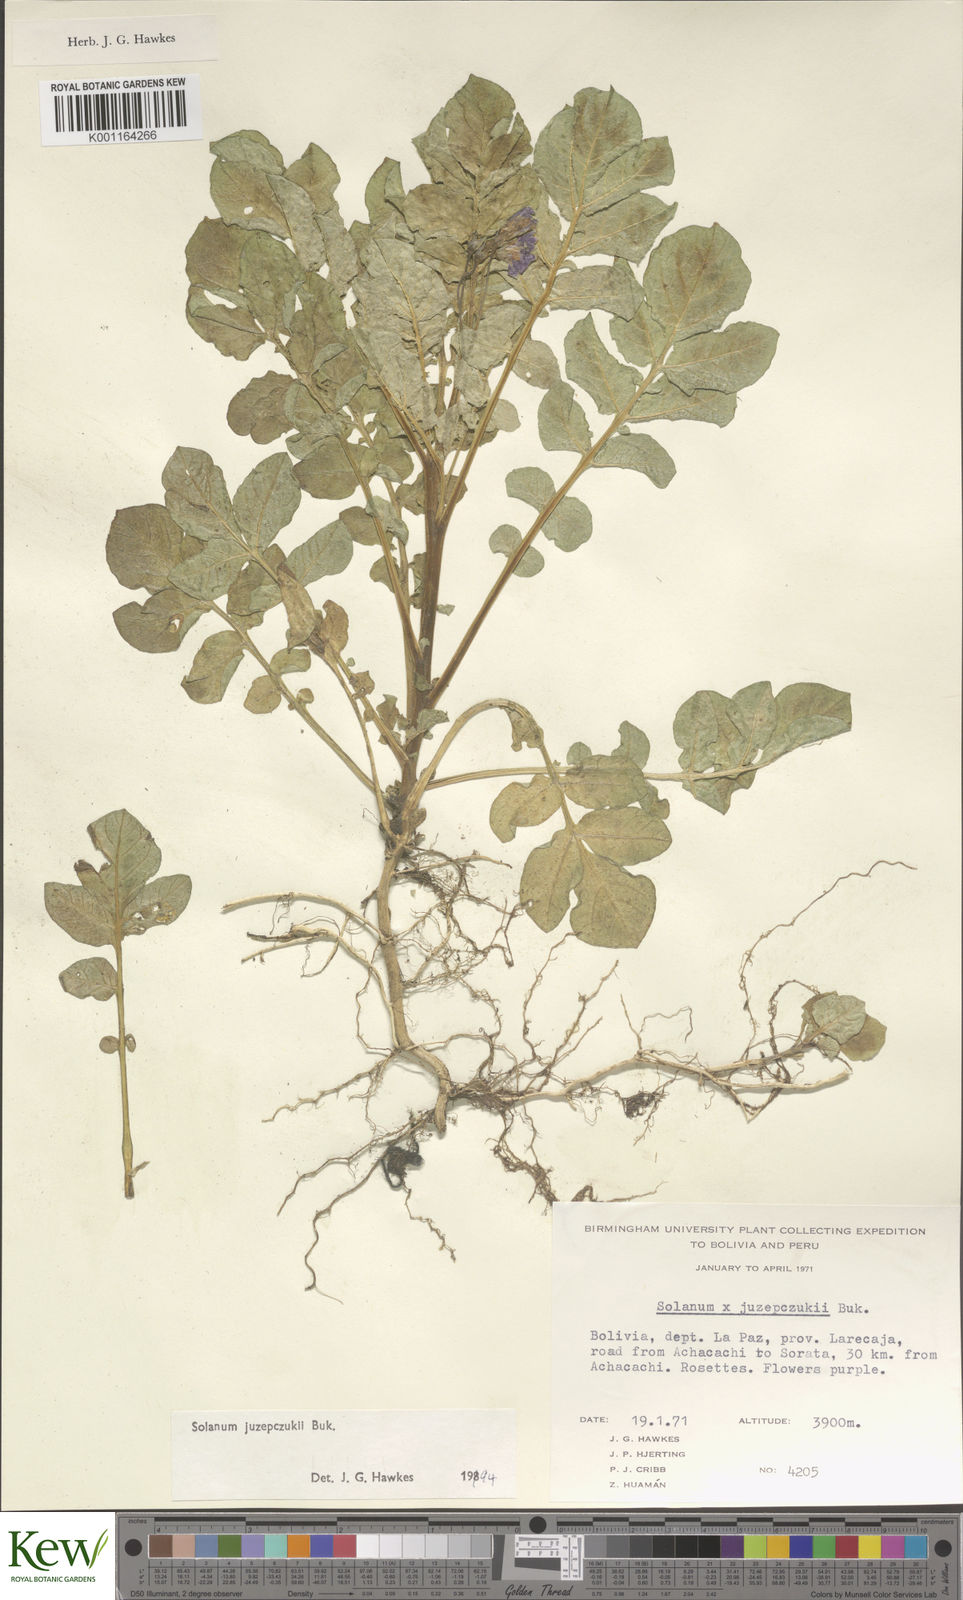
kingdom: Plantae
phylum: Tracheophyta
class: Magnoliopsida
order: Solanales
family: Solanaceae
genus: Solanum
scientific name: Solanum juzepczukii
